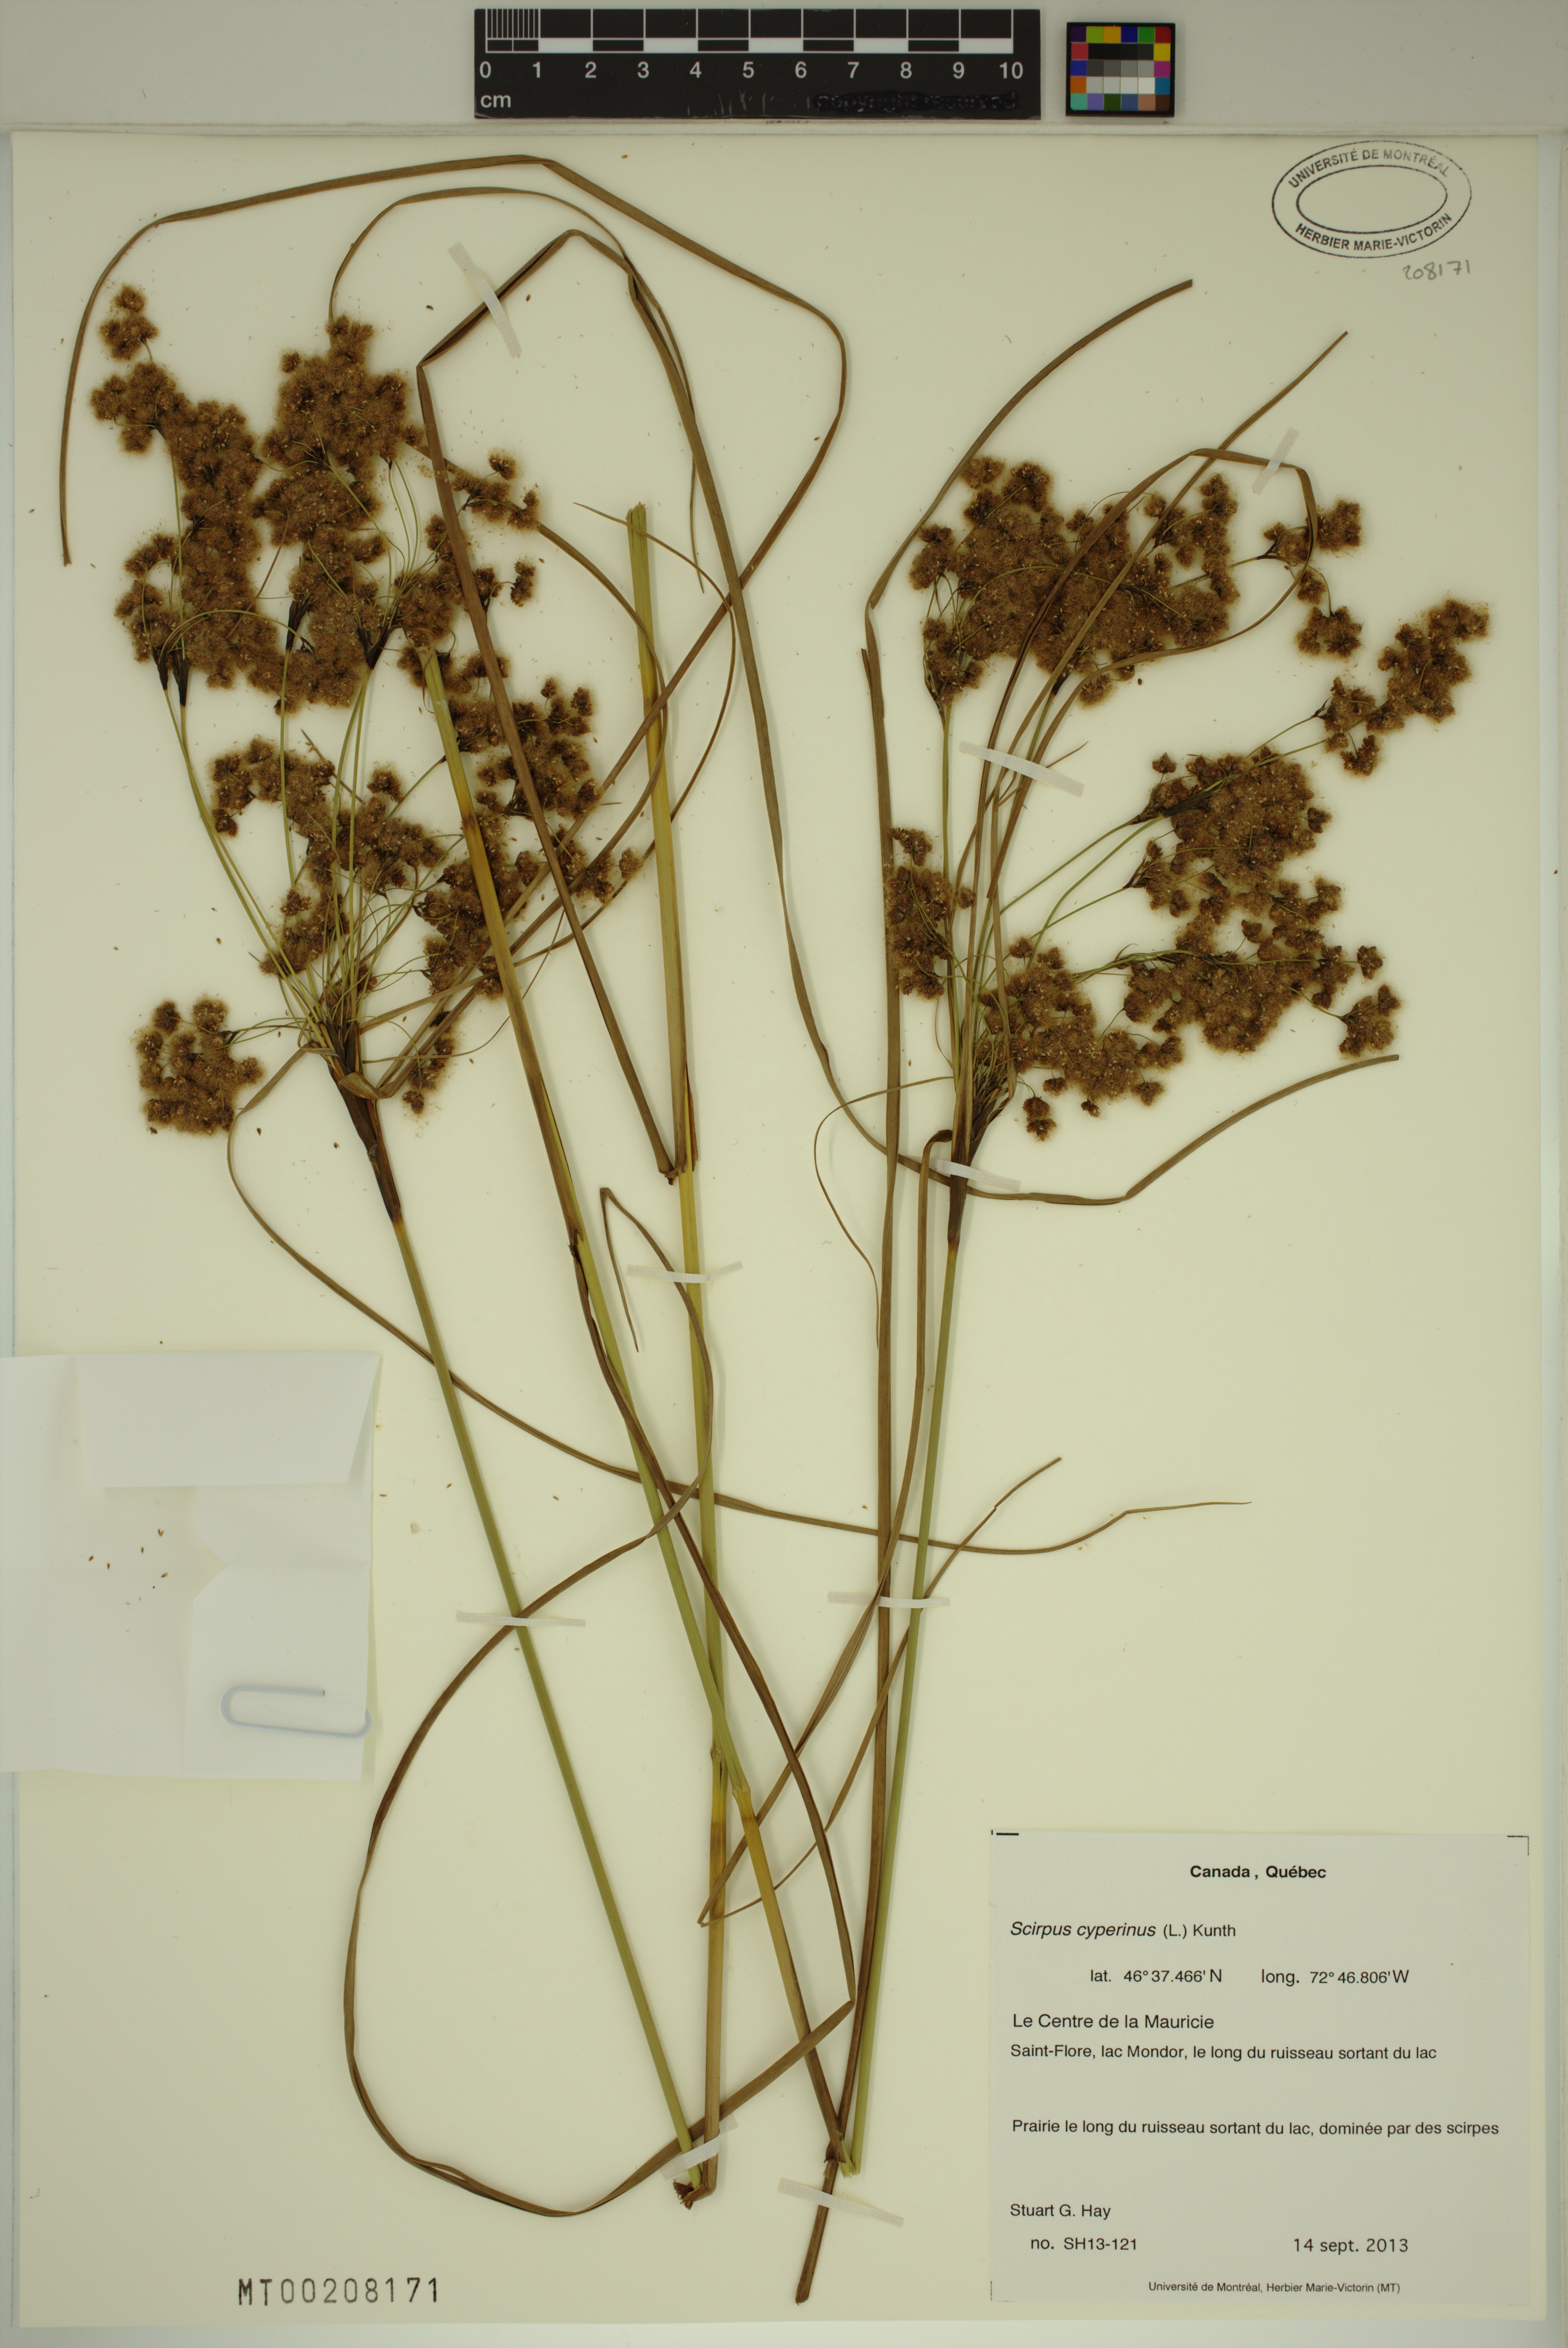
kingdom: Plantae
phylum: Tracheophyta
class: Liliopsida
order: Poales
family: Cyperaceae
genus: Scirpus
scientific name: Scirpus cyperinus
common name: Black-sheathed bulrush
